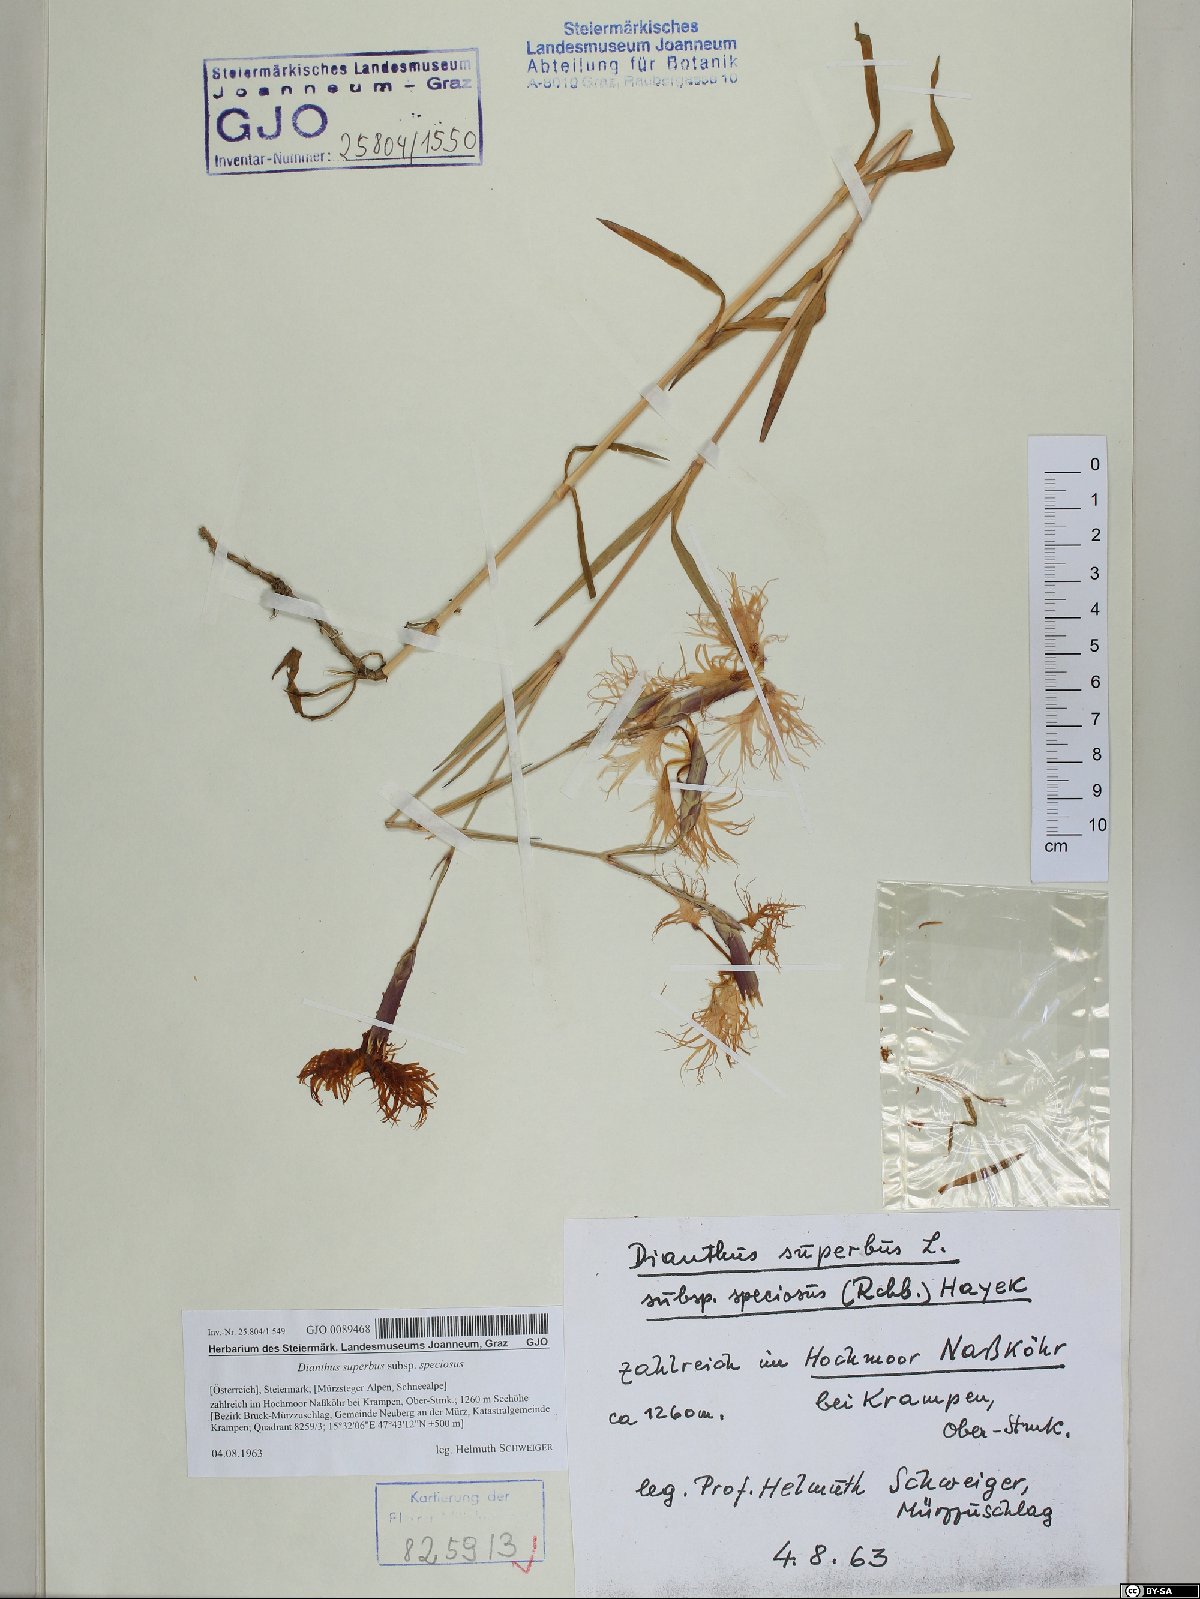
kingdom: Plantae
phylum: Tracheophyta
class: Magnoliopsida
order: Caryophyllales
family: Caryophyllaceae
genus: Dianthus
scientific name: Dianthus superbus
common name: Fringed pink
